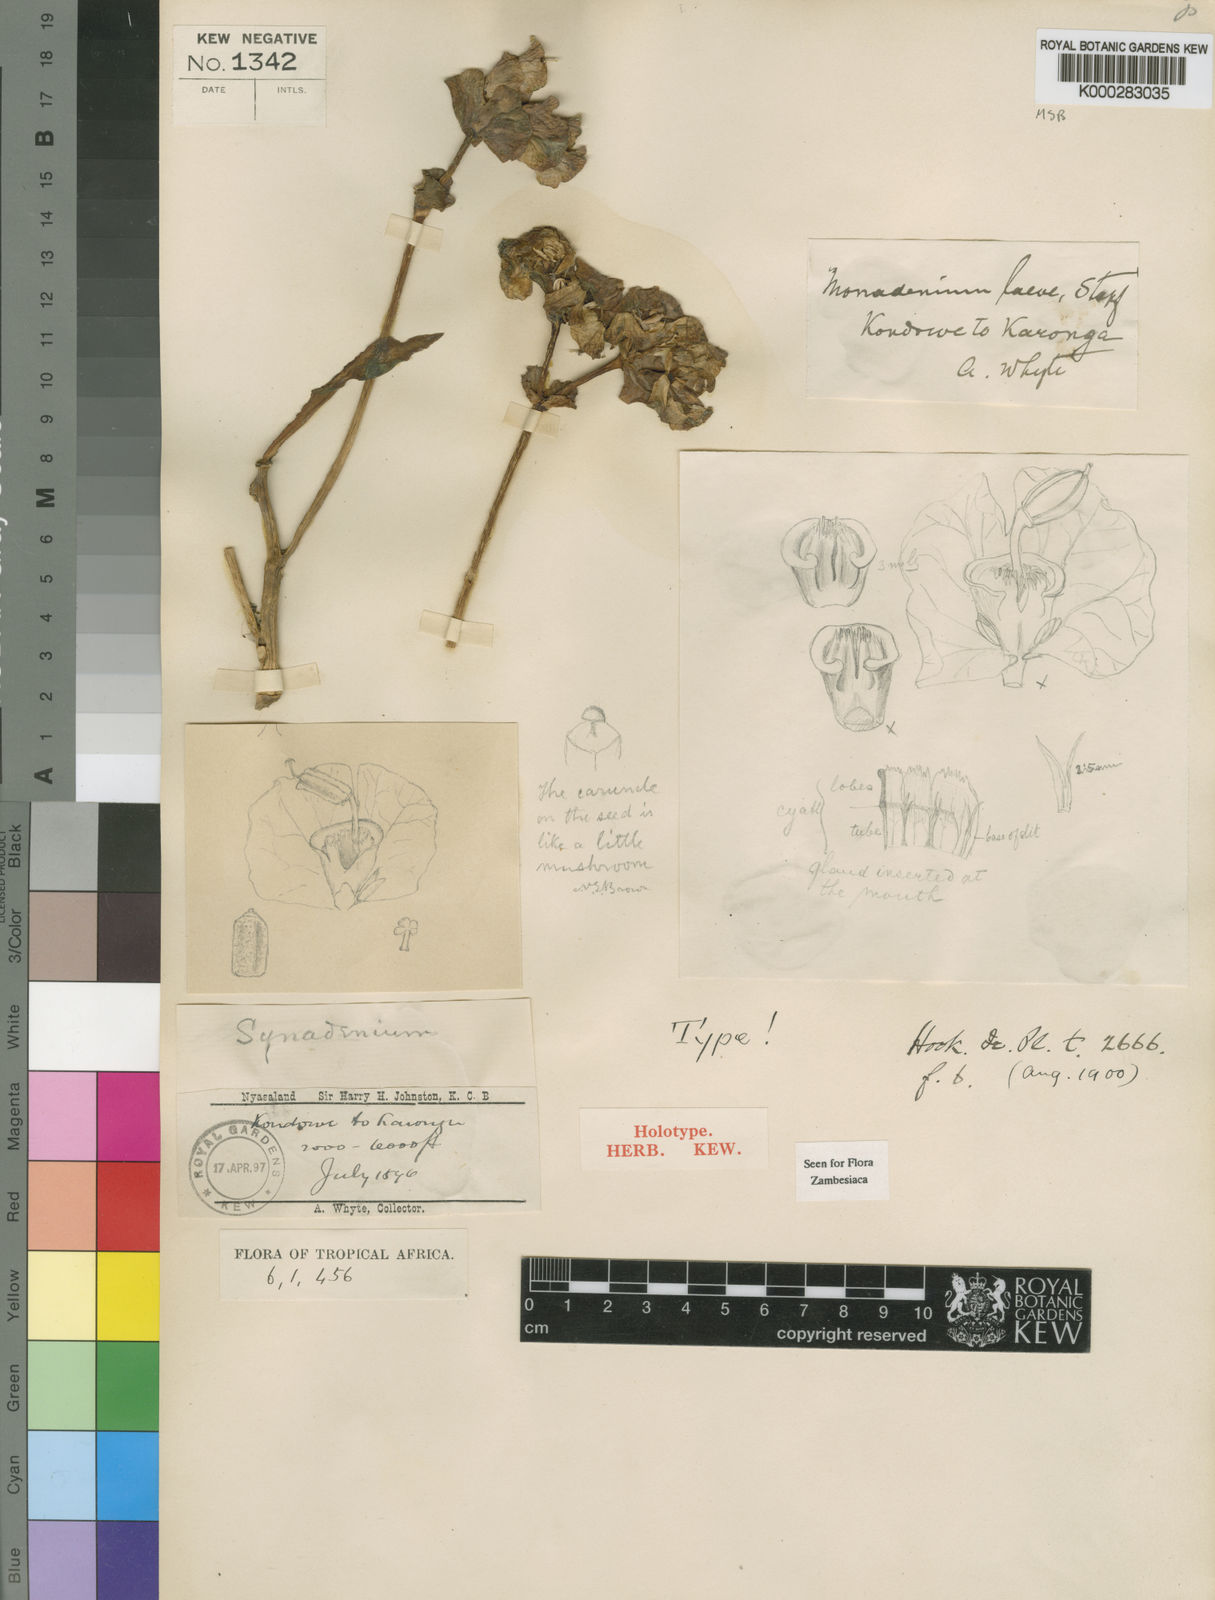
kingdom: Plantae
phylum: Tracheophyta
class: Magnoliopsida
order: Malpighiales
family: Euphorbiaceae
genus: Euphorbia
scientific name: Euphorbia pseudolaevis
